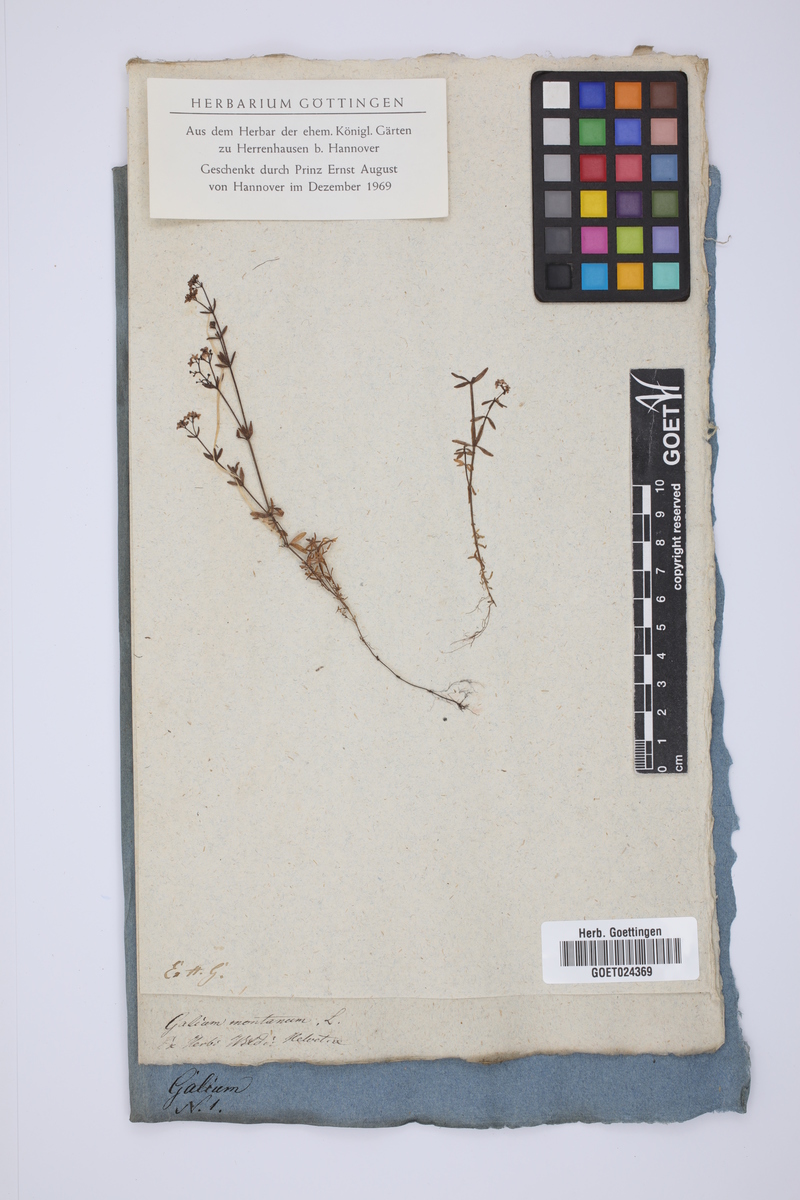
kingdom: Plantae
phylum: Tracheophyta
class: Magnoliopsida
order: Gentianales
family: Rubiaceae
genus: Galium
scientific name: Galium glaucum
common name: Waxy bedstraw
